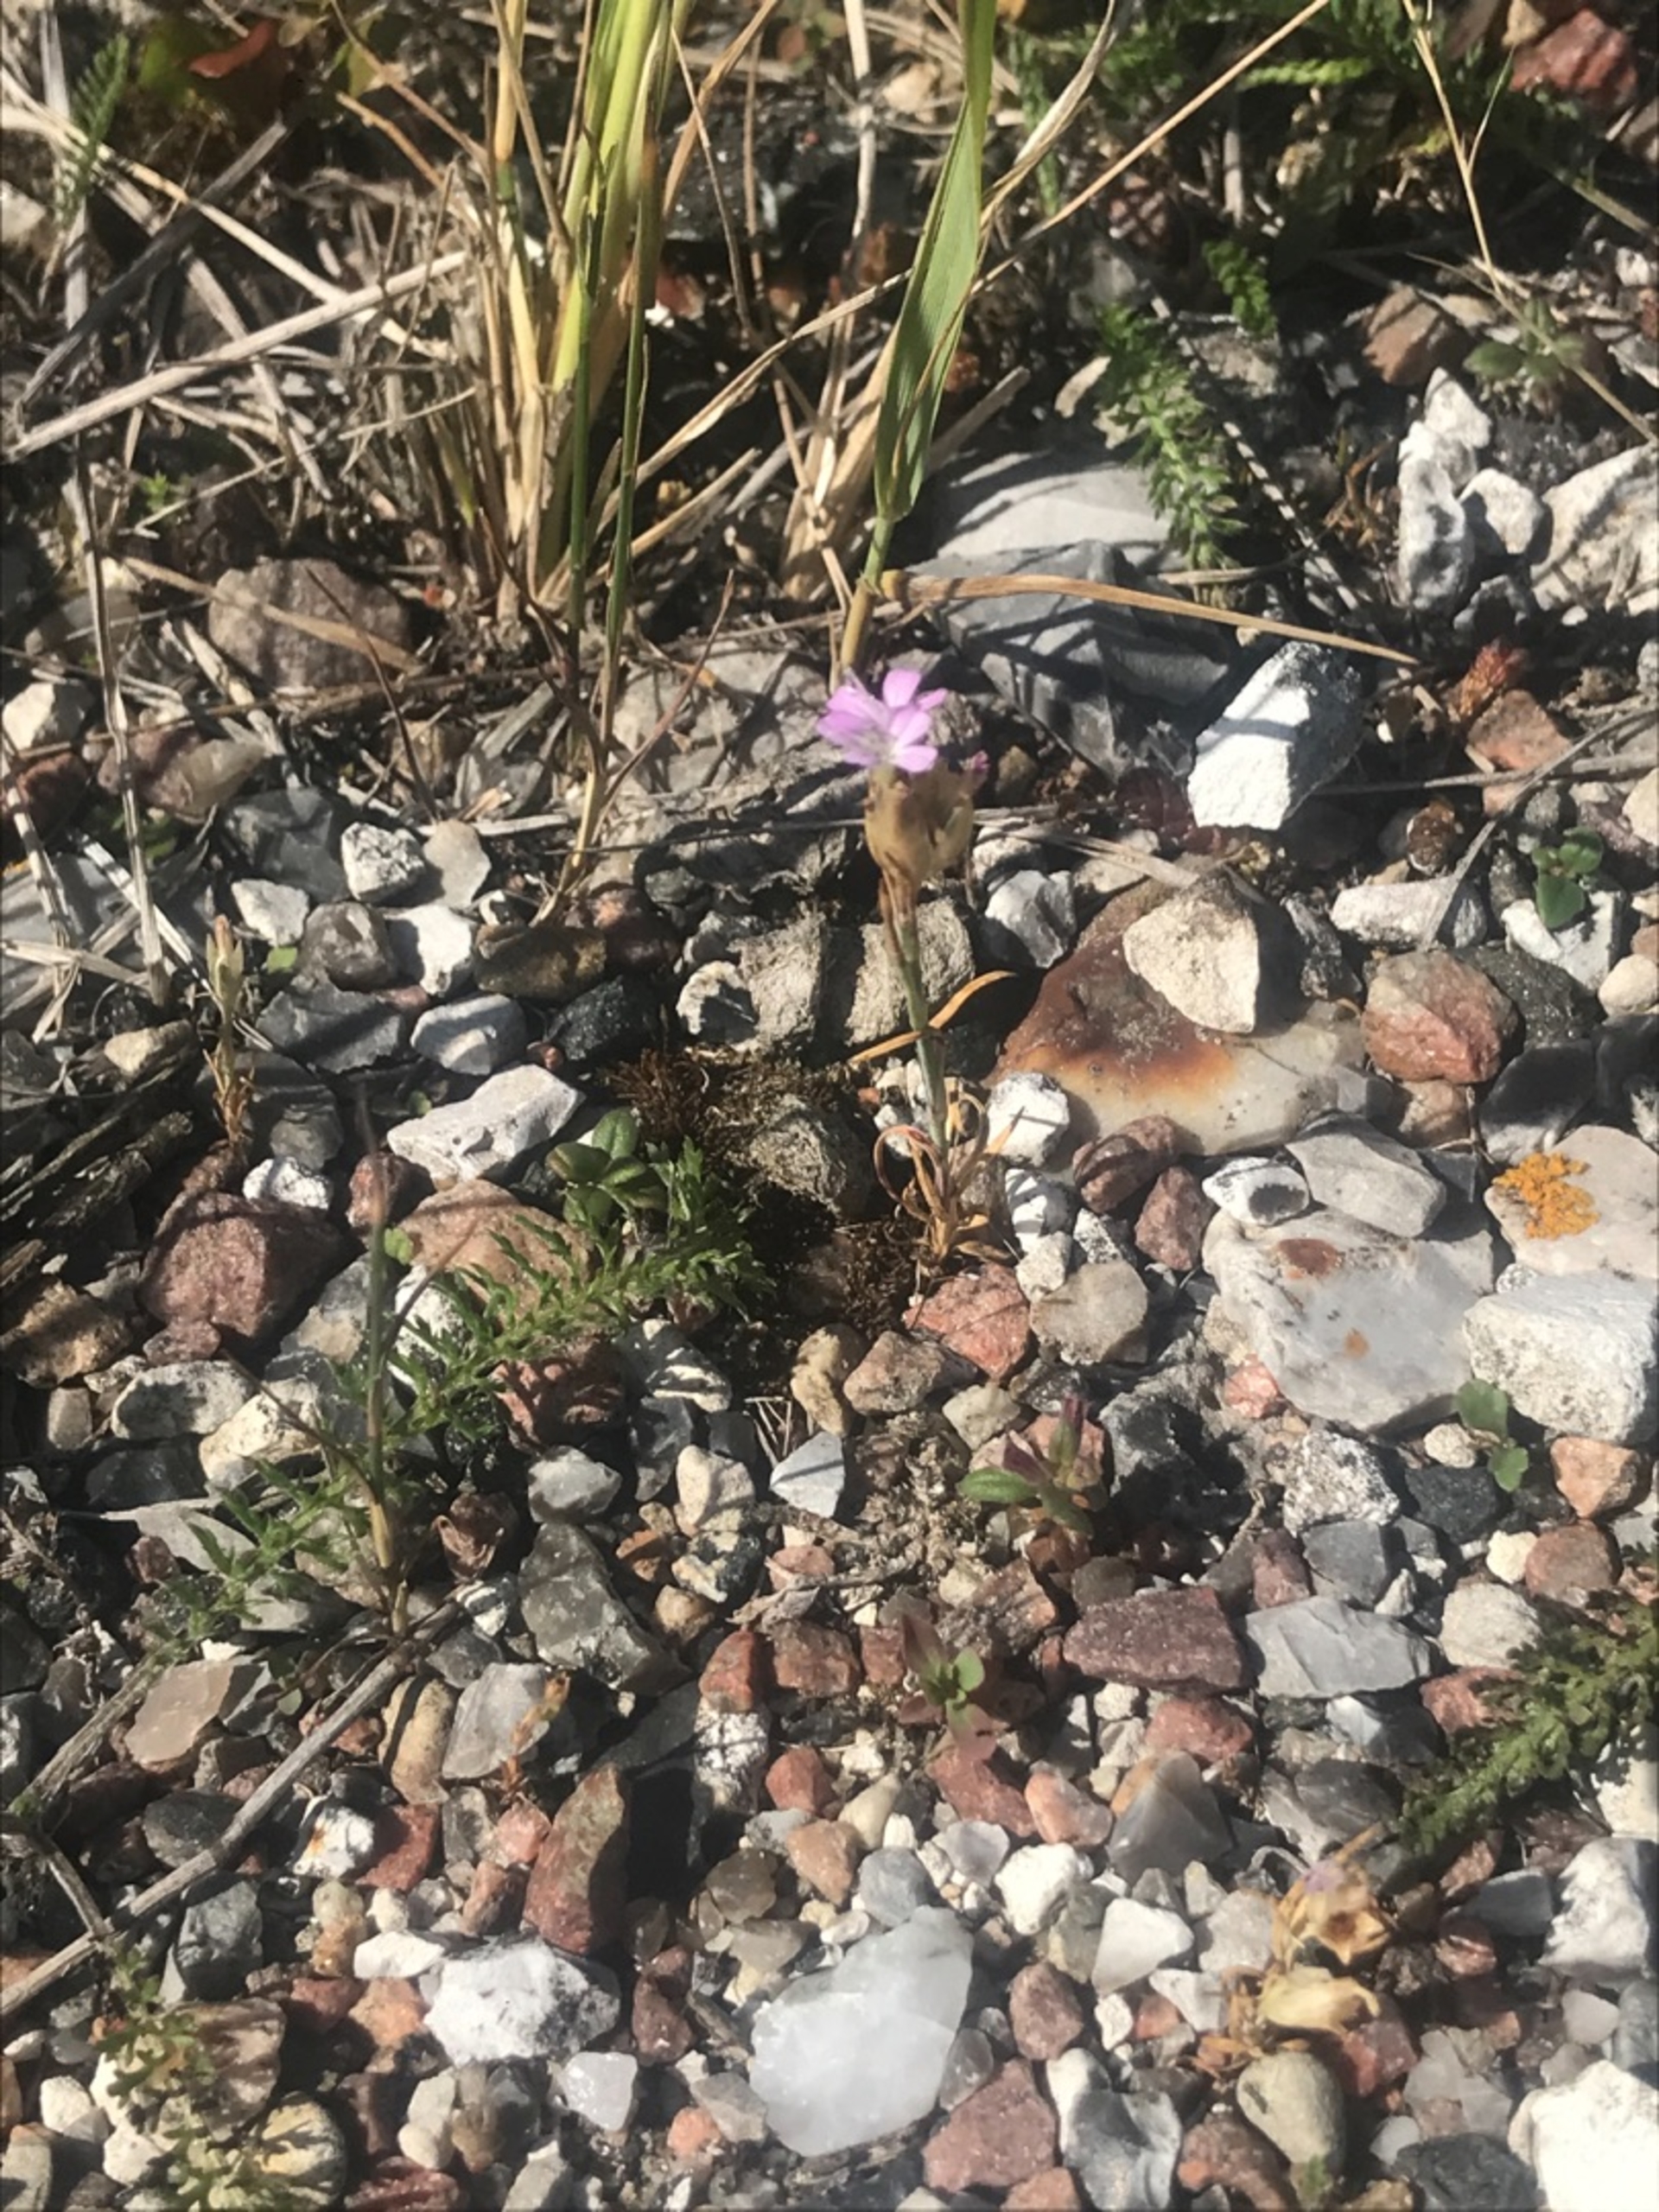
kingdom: Plantae
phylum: Tracheophyta
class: Magnoliopsida
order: Caryophyllales
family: Caryophyllaceae
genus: Petrorhagia
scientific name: Petrorhagia prolifera
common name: Knopnellike
